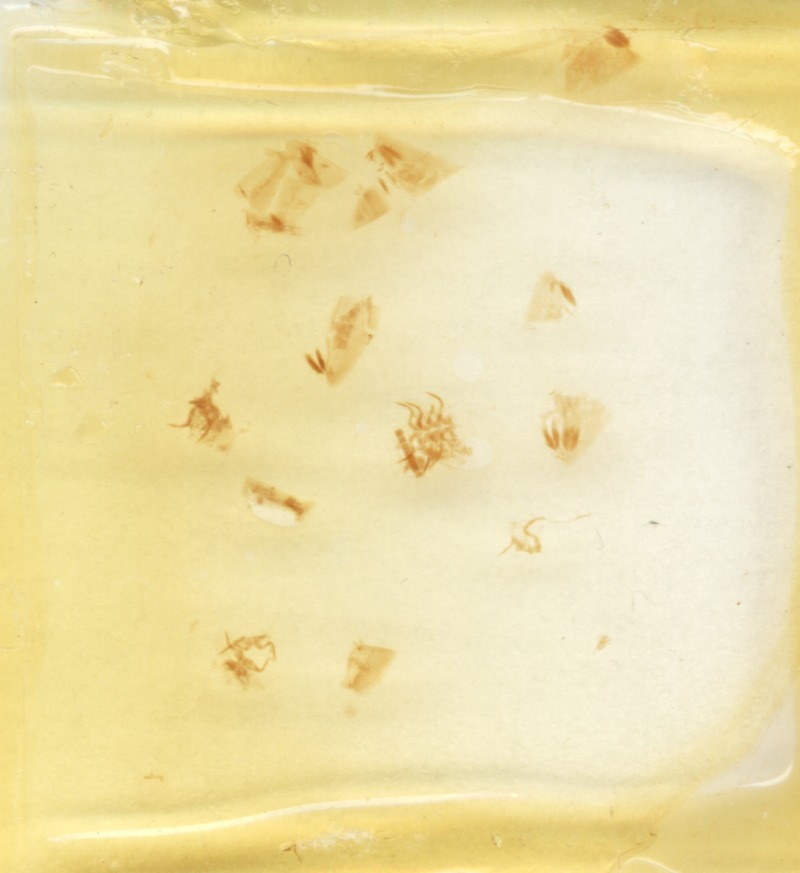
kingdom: Animalia
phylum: Arthropoda
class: Diplopoda
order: Glomerida
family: Glomeridae
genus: Onychoglomeris
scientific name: Onychoglomeris castanea
